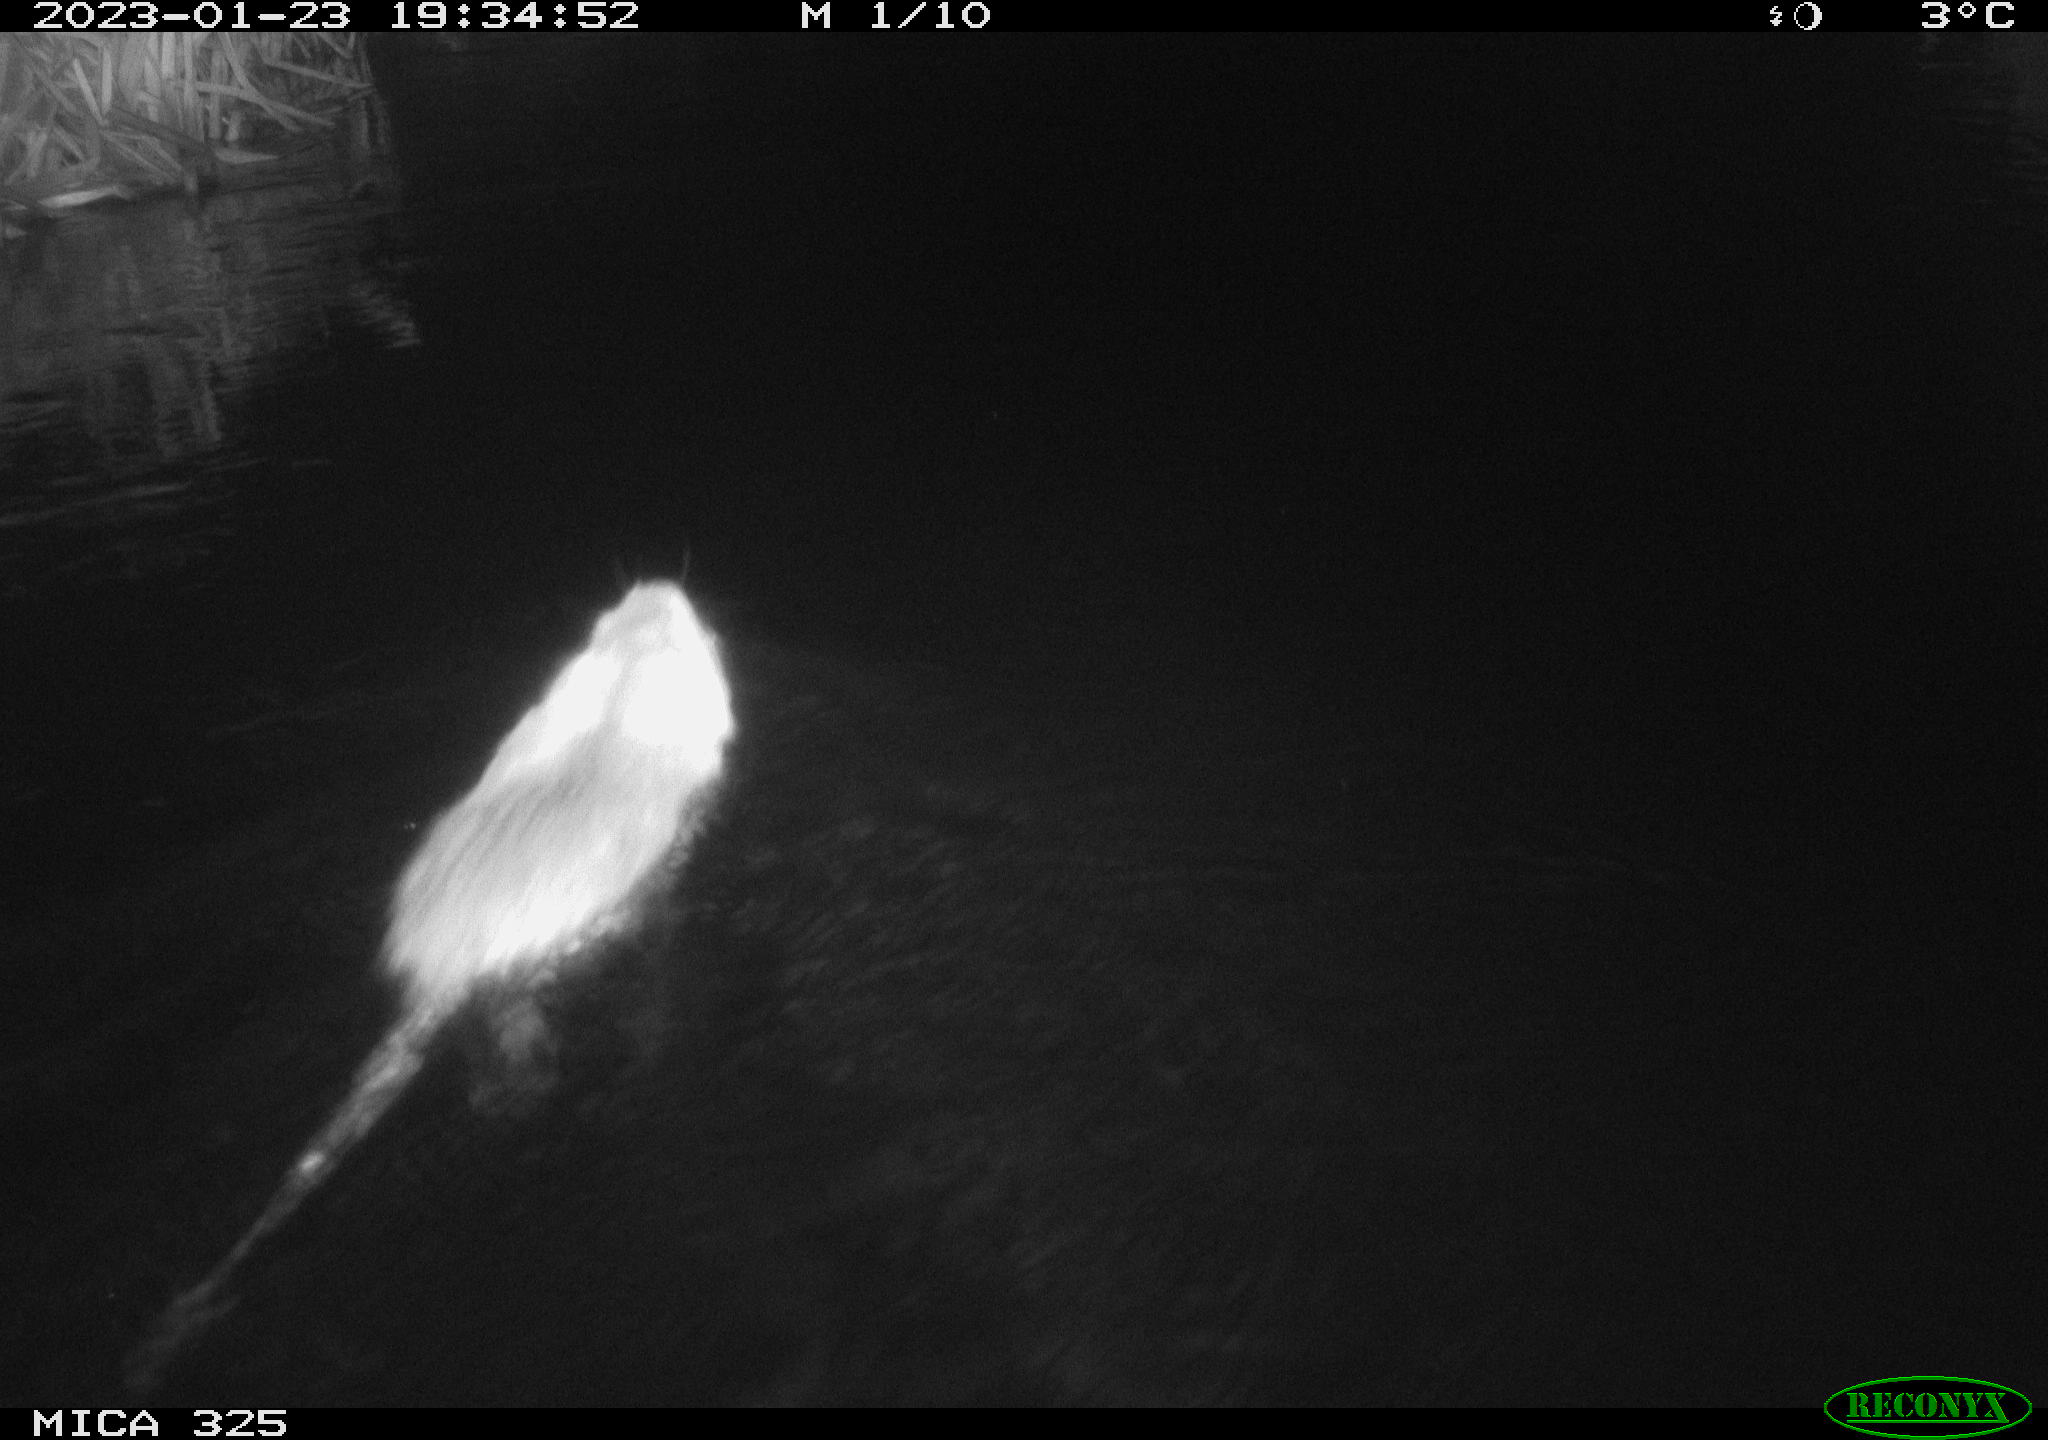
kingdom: Animalia
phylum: Chordata
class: Mammalia
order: Rodentia
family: Myocastoridae
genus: Myocastor
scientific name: Myocastor coypus
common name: Coypu
